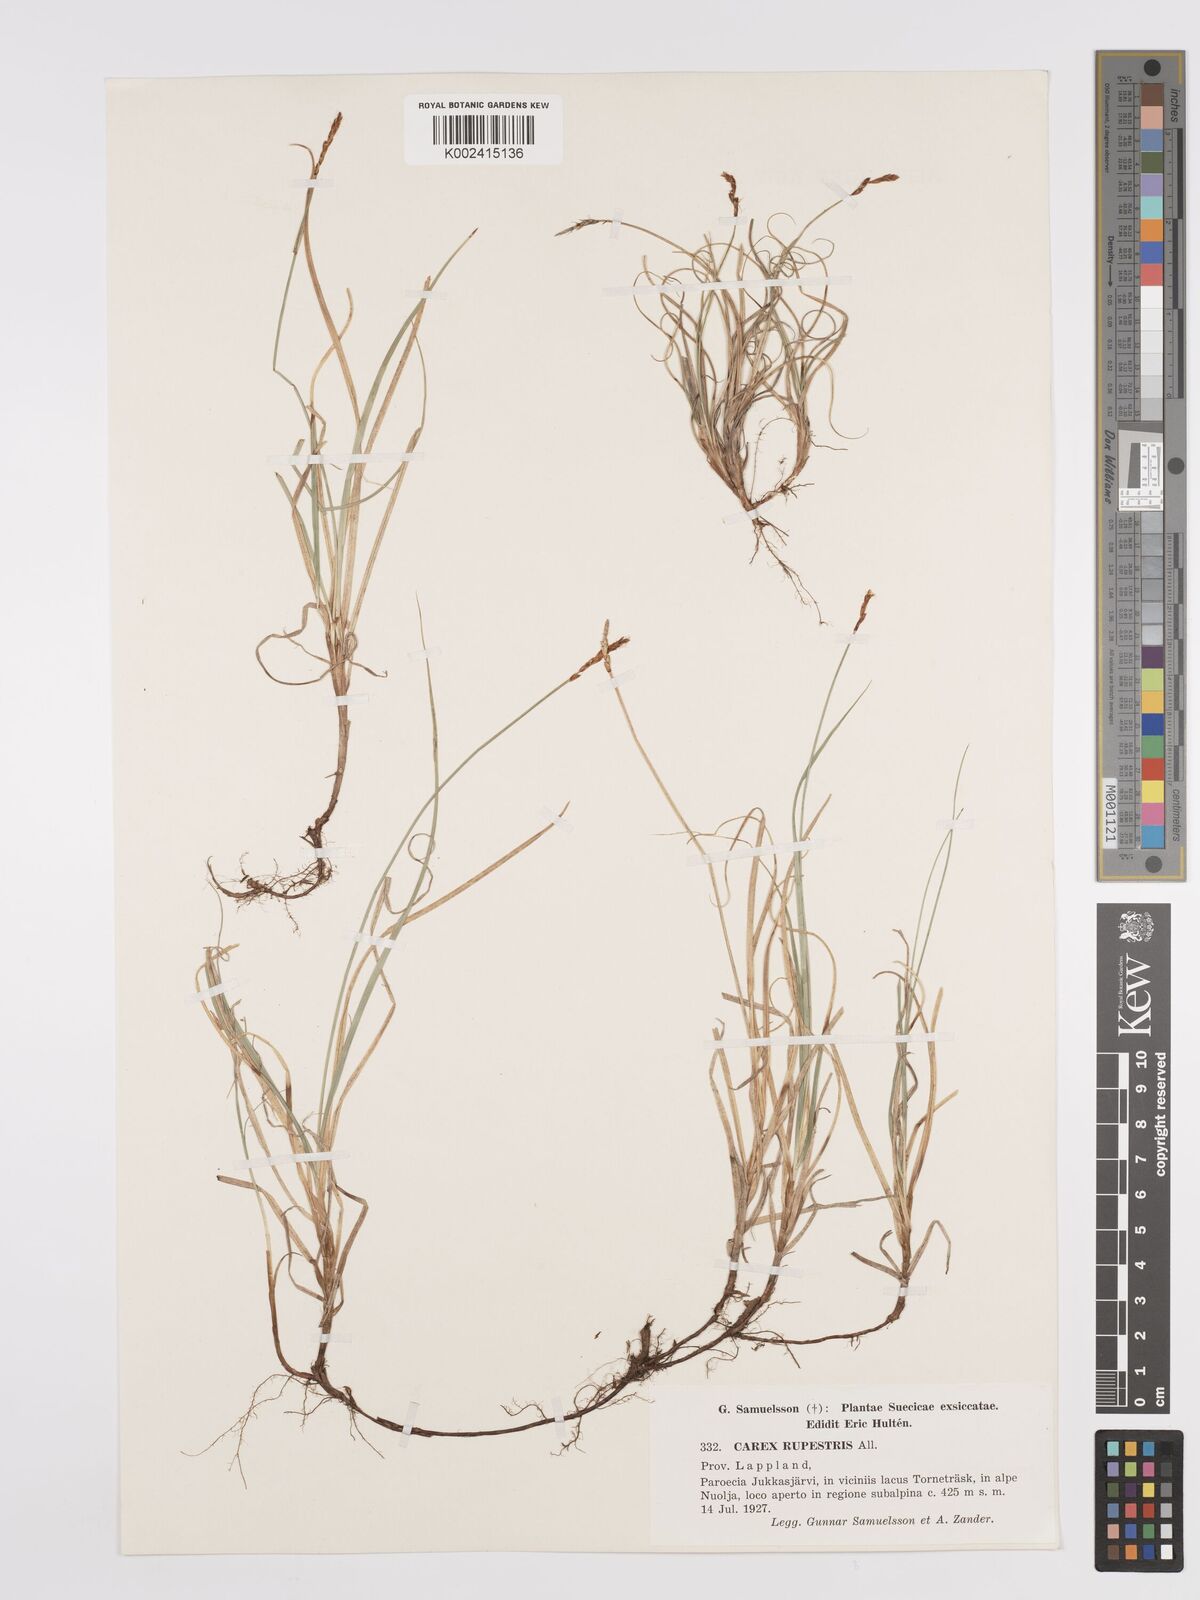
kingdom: Plantae
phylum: Tracheophyta
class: Liliopsida
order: Poales
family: Cyperaceae
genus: Carex
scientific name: Carex rupestris
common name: Rock sedge
